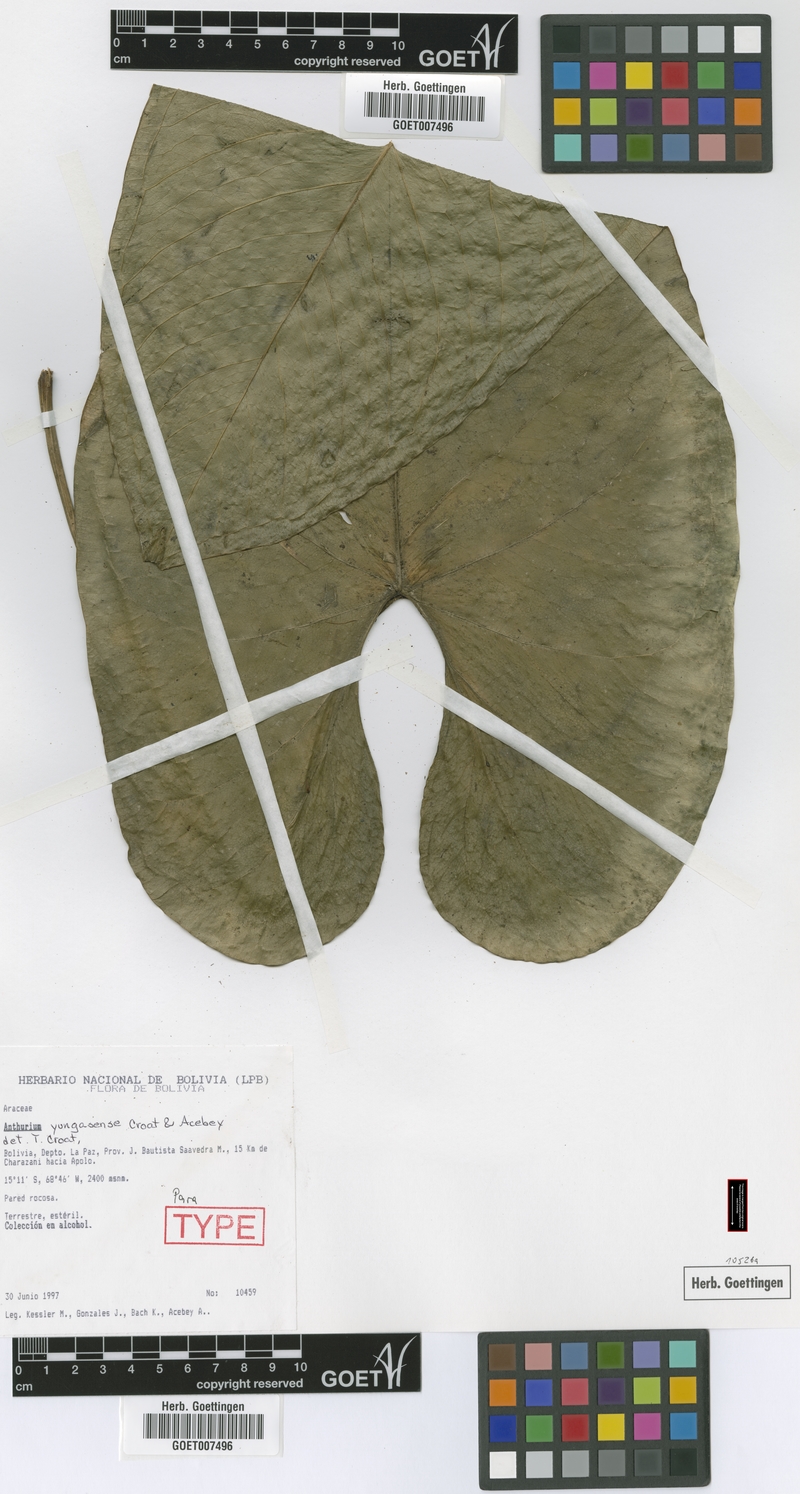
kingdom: Plantae
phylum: Tracheophyta
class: Liliopsida
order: Alismatales
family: Araceae
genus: Anthurium
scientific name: Anthurium yungasense
